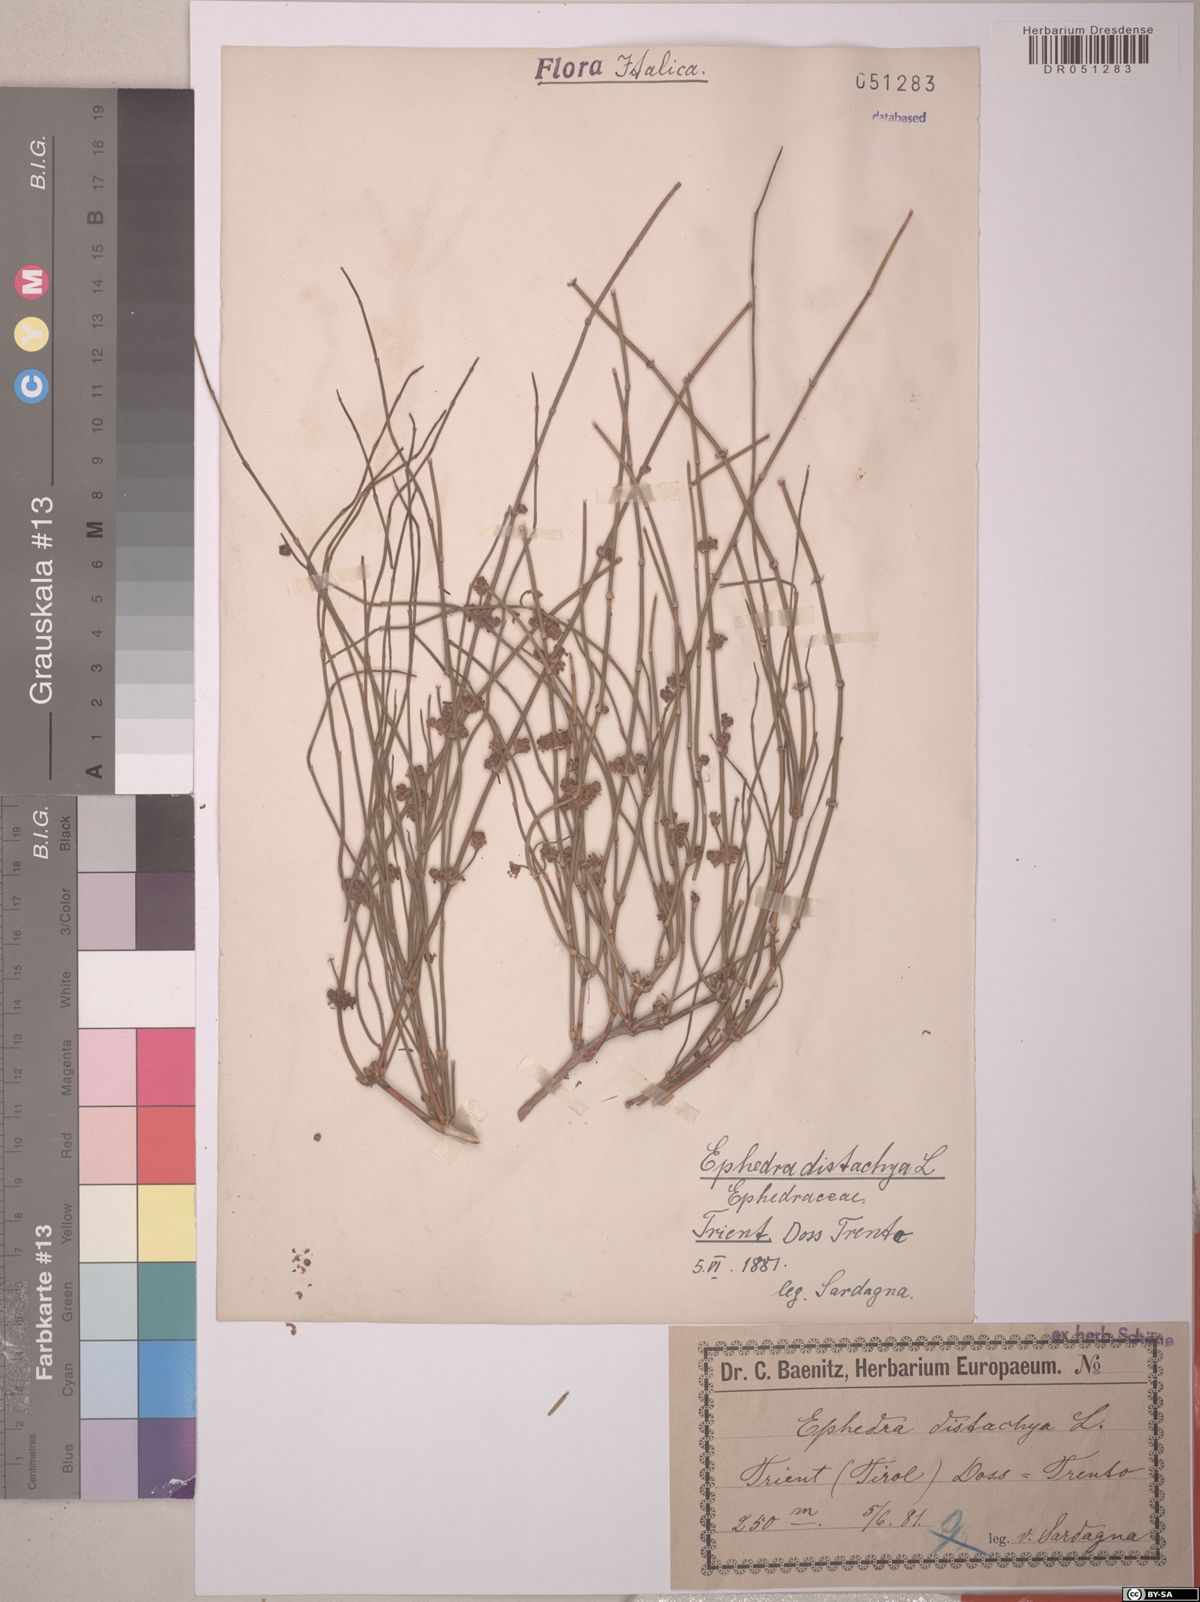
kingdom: Plantae
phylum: Tracheophyta
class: Gnetopsida
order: Ephedrales
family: Ephedraceae
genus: Ephedra
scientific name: Ephedra distachya
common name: Sea grape
